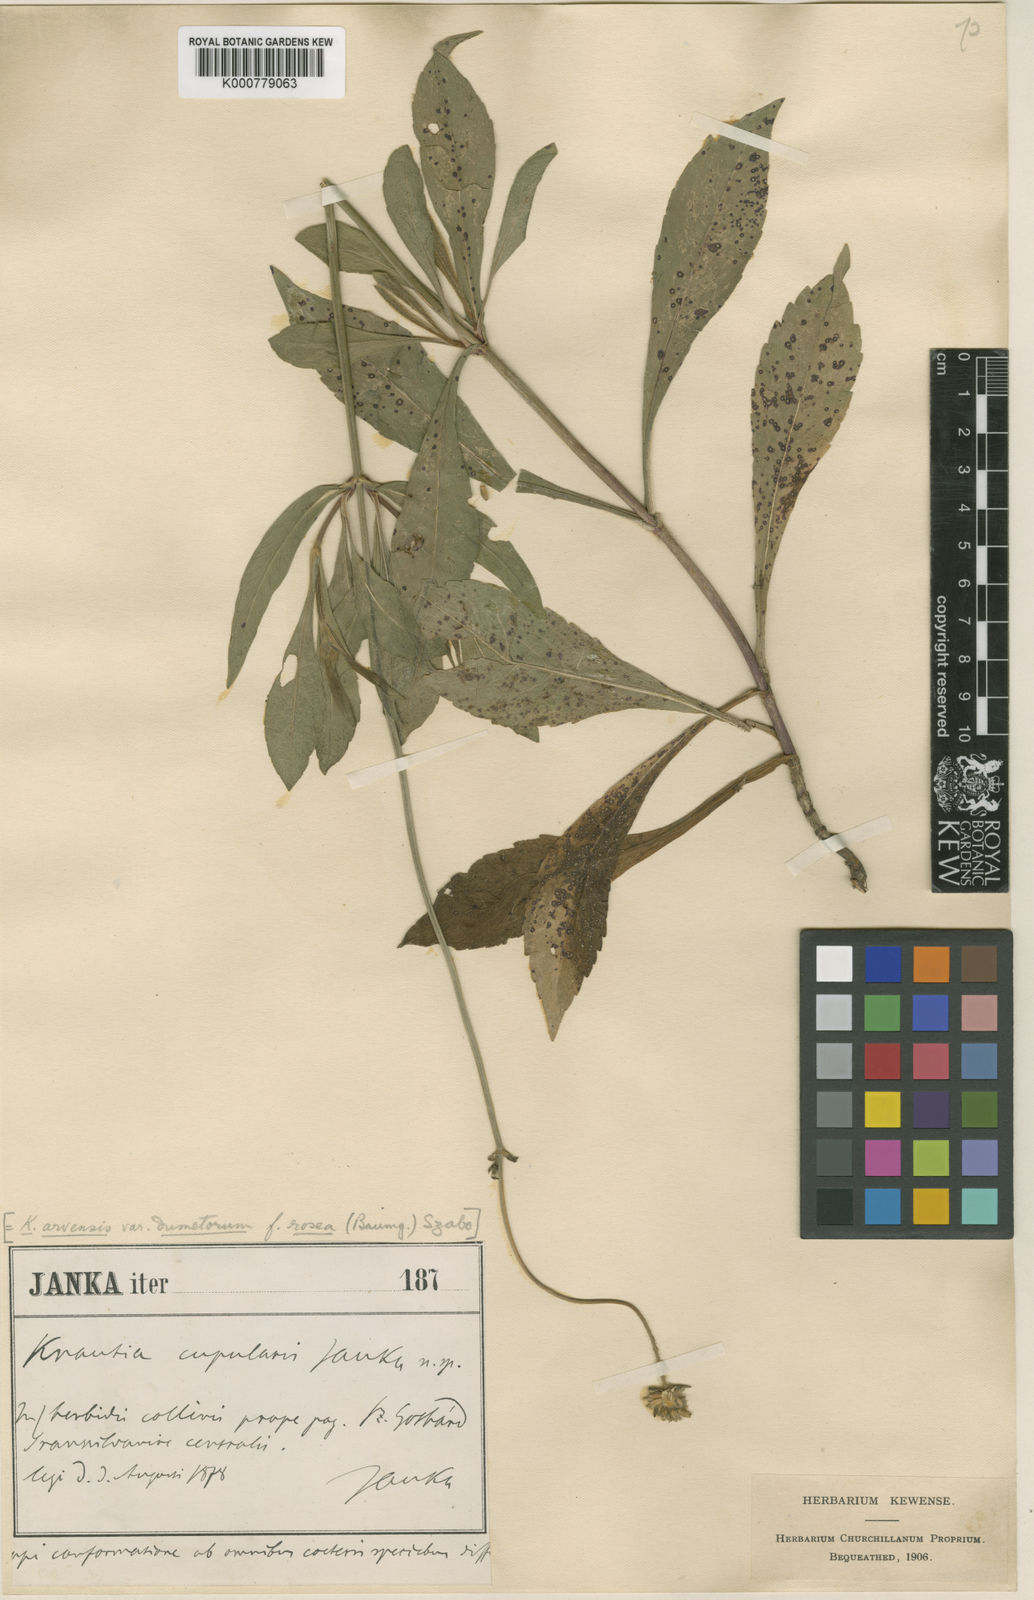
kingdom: Plantae
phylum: Tracheophyta
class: Magnoliopsida
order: Dipsacales
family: Caprifoliaceae
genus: Knautia
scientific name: Knautia
